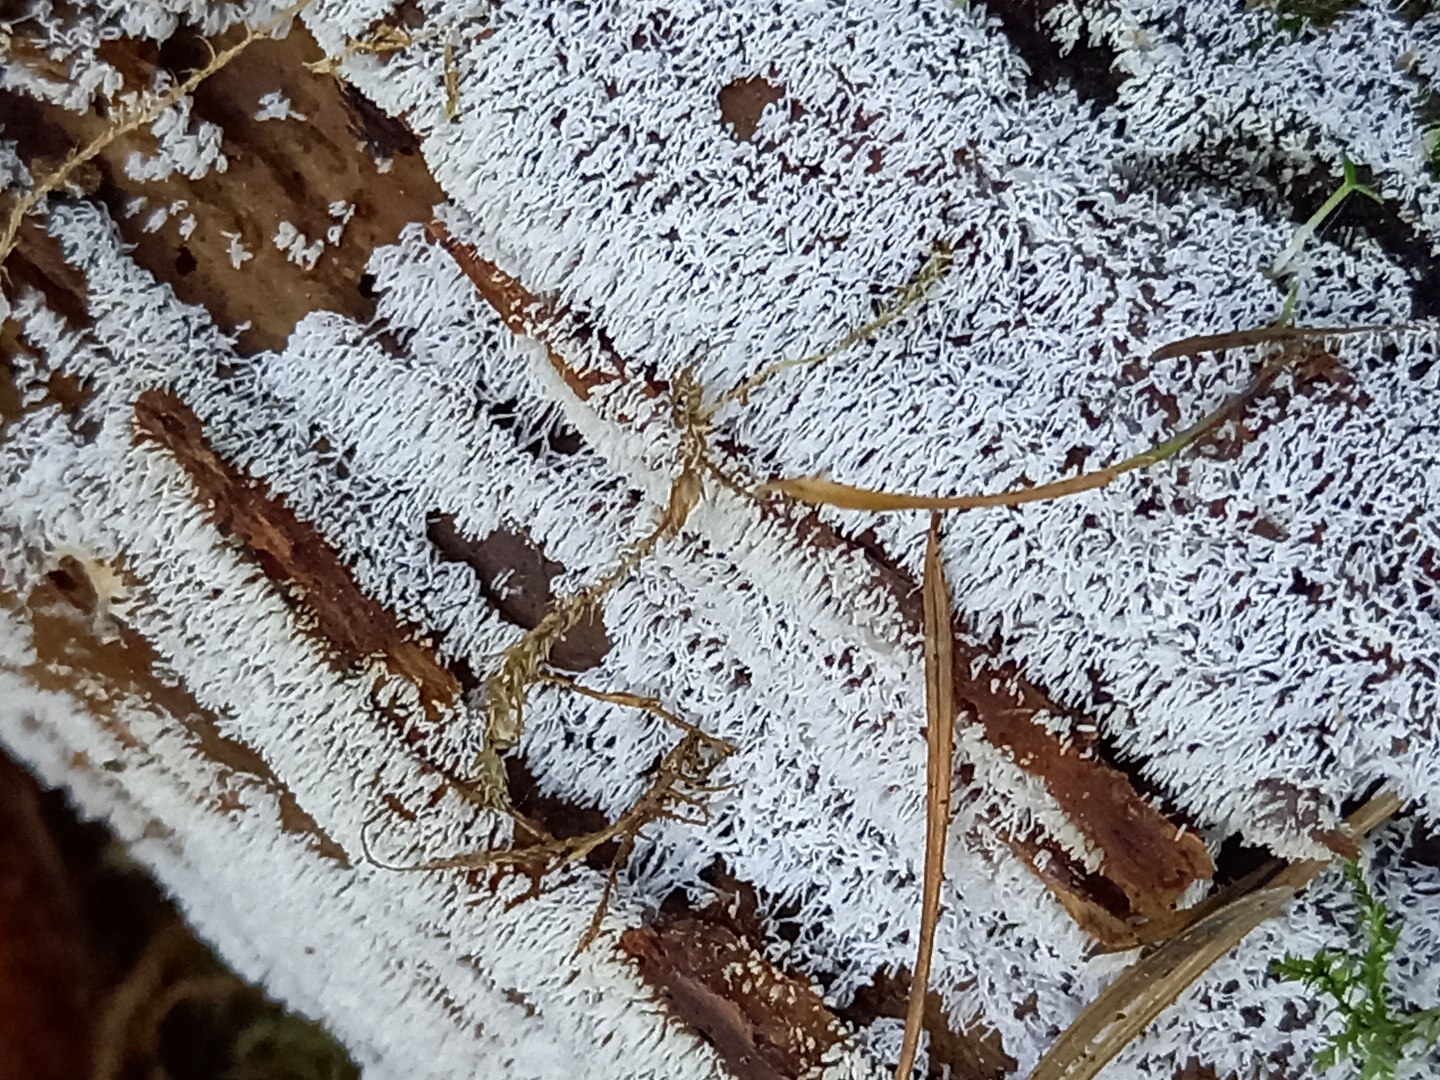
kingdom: Protozoa
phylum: Mycetozoa
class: Protosteliomycetes
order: Ceratiomyxales
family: Ceratiomyxaceae
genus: Ceratiomyxa
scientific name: Ceratiomyxa fruticulosa
